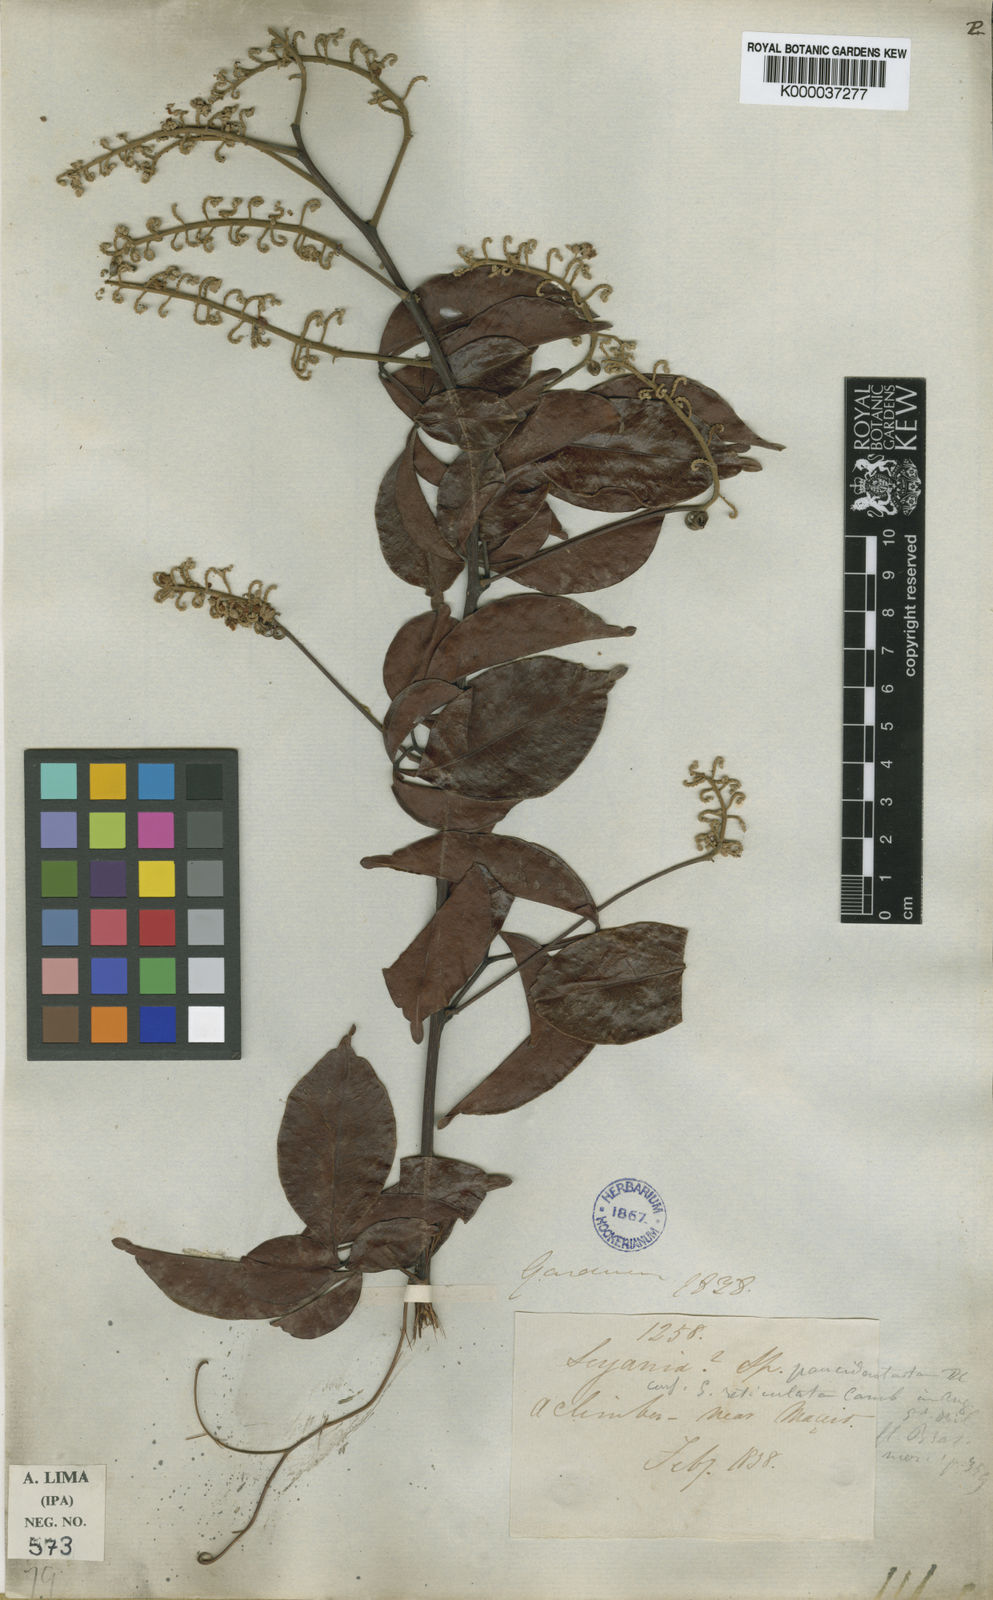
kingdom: Plantae
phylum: Tracheophyta
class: Magnoliopsida
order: Sapindales
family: Sapindaceae
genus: Serjania
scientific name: Serjania paucidentata
